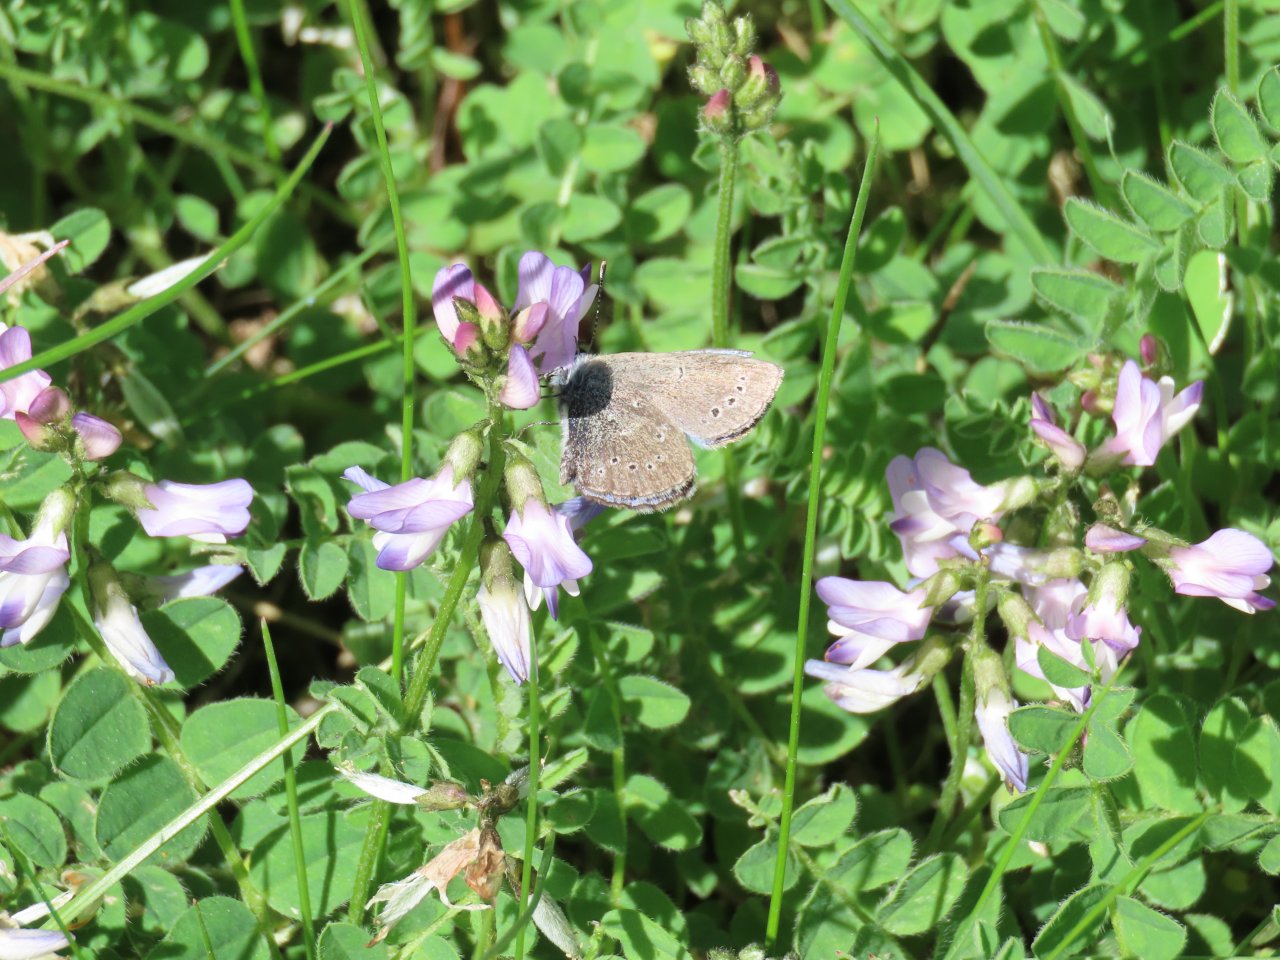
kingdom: Animalia
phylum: Arthropoda
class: Insecta
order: Lepidoptera
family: Lycaenidae
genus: Glaucopsyche
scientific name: Glaucopsyche lygdamus
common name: Silvery Blue
